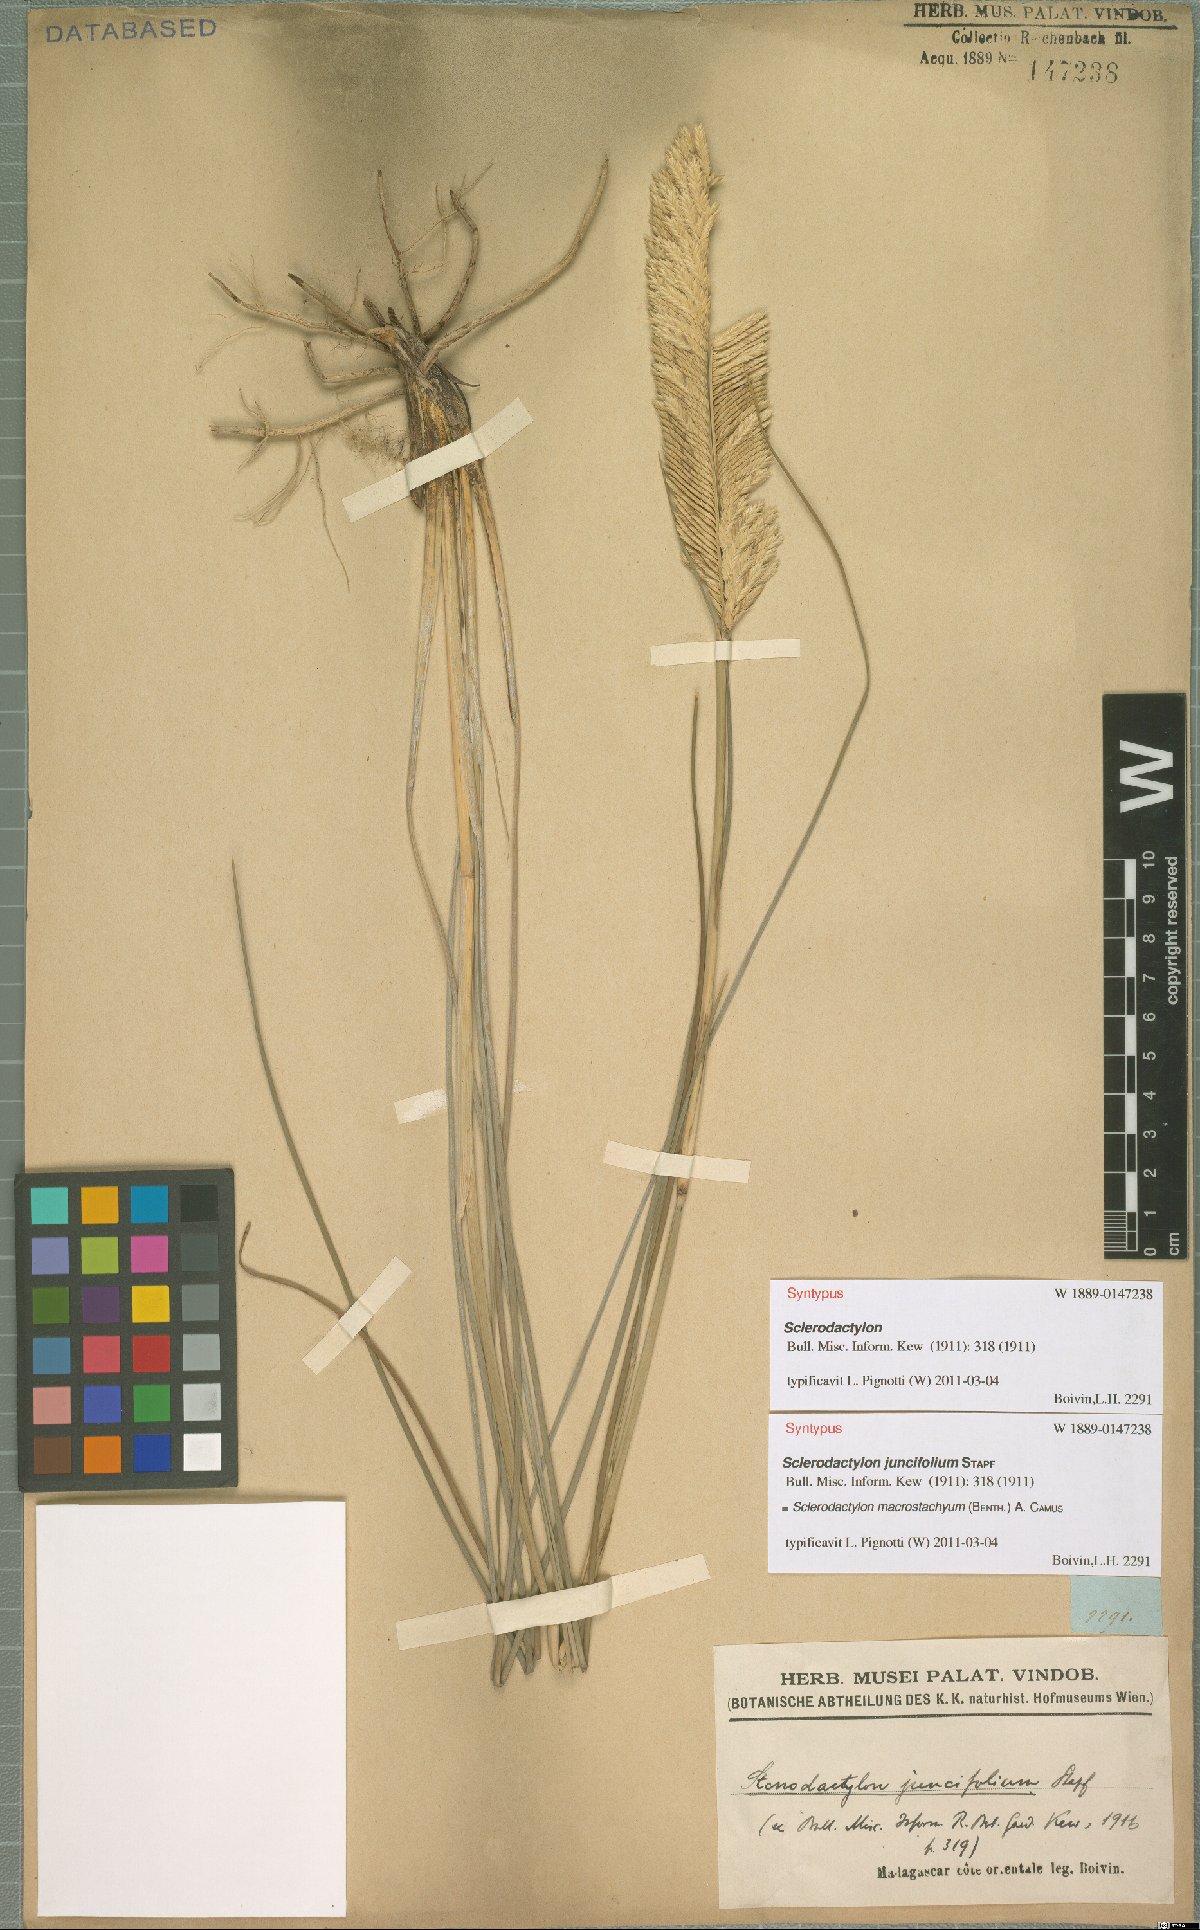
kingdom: Plantae
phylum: Tracheophyta
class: Liliopsida
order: Poales
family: Poaceae
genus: Sclerodactylon
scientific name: Sclerodactylon macrostachyum
